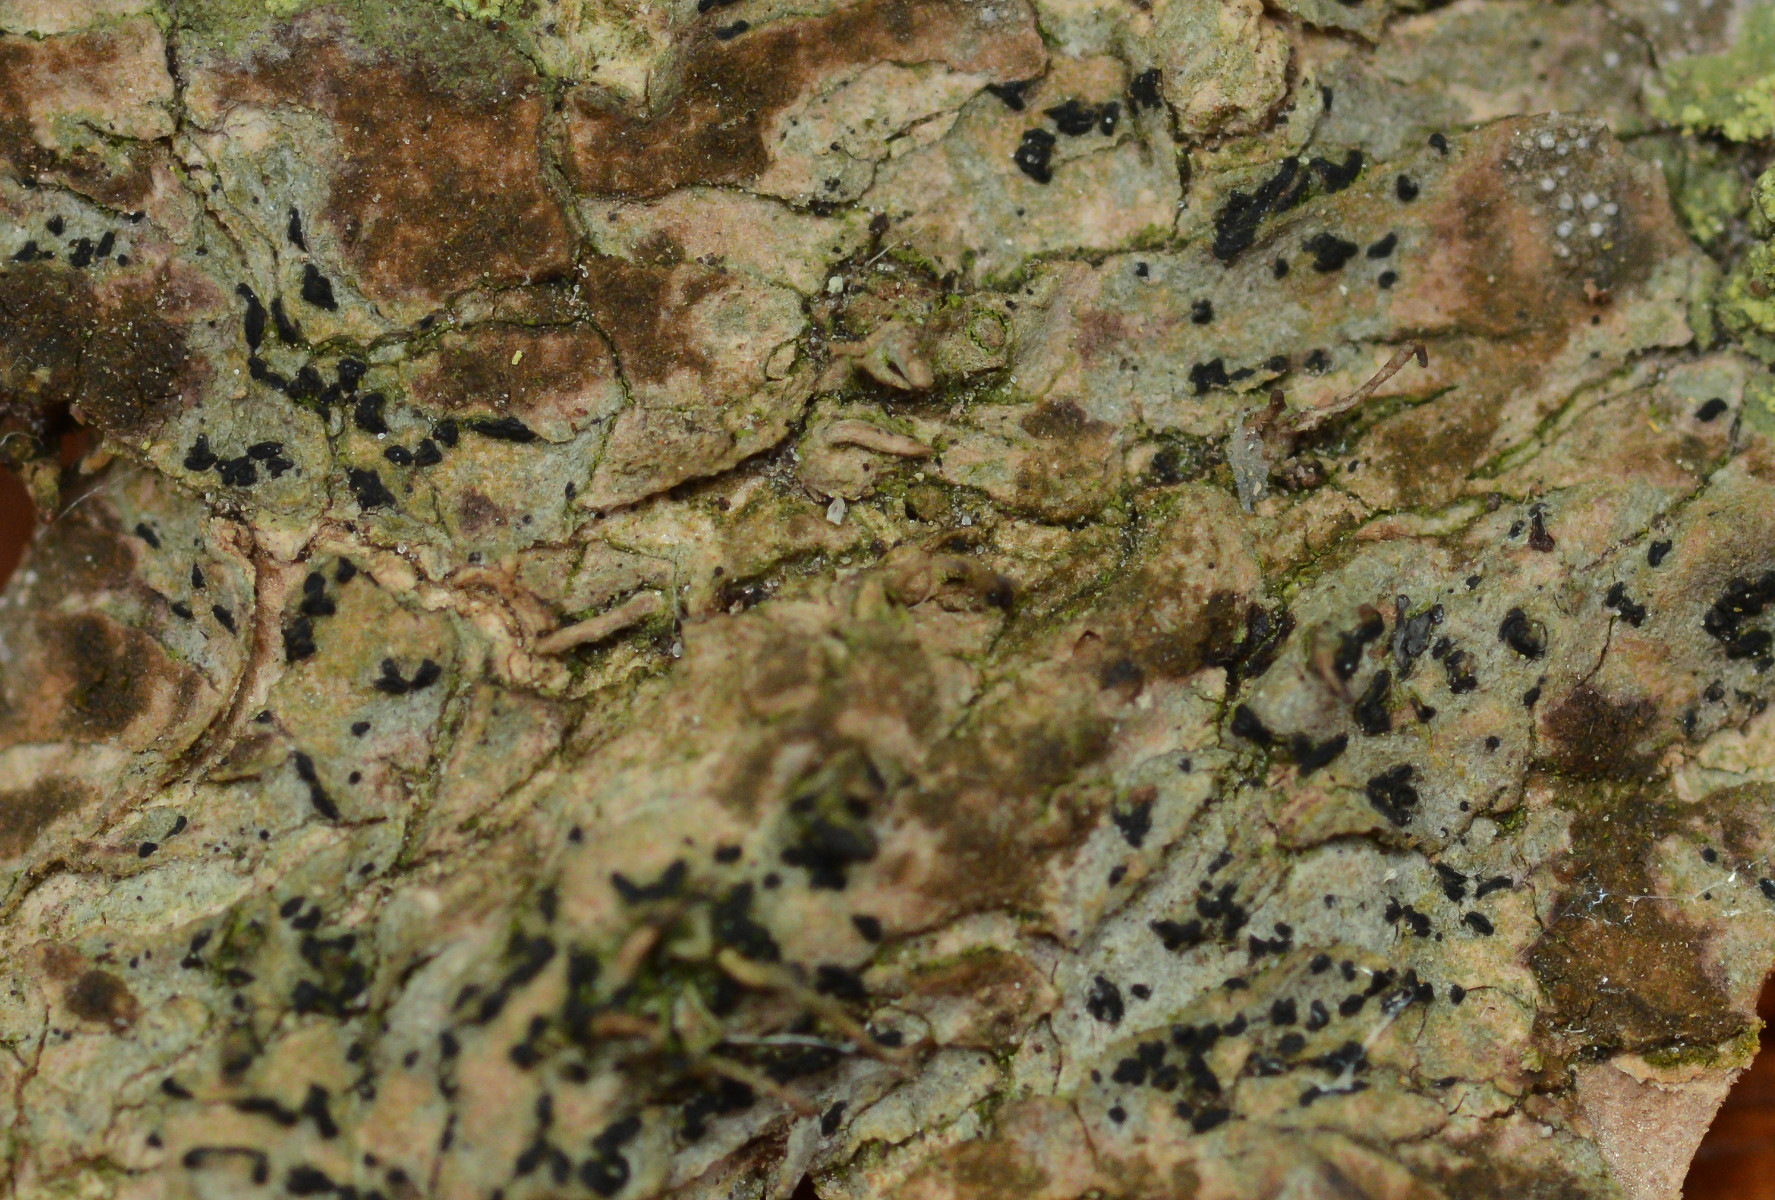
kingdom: Fungi
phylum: Ascomycota
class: Arthoniomycetes
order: Arthoniales
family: Lecanographaceae
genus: Alyxoria
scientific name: Alyxoria culmigena
